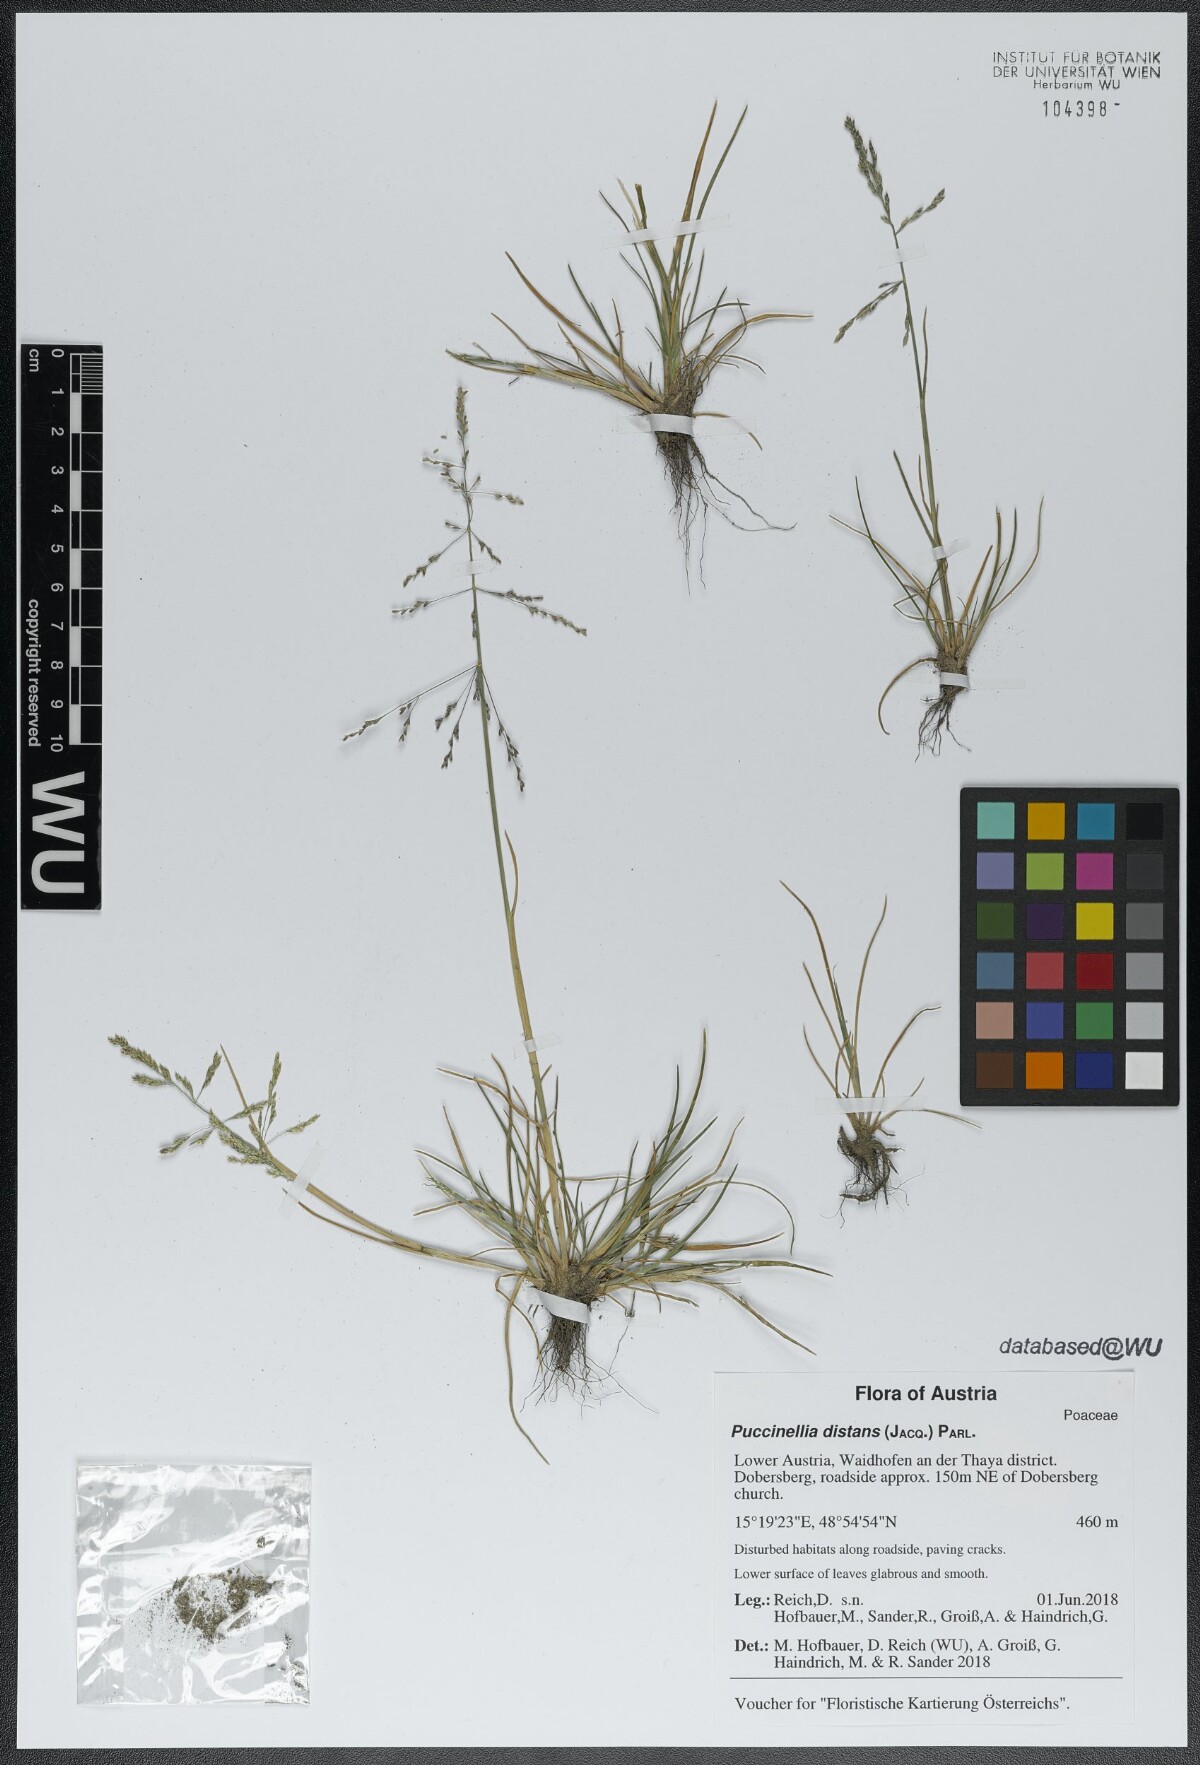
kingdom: Plantae
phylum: Tracheophyta
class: Liliopsida
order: Poales
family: Poaceae
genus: Puccinellia
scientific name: Puccinellia distans
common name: Weeping alkaligrass
